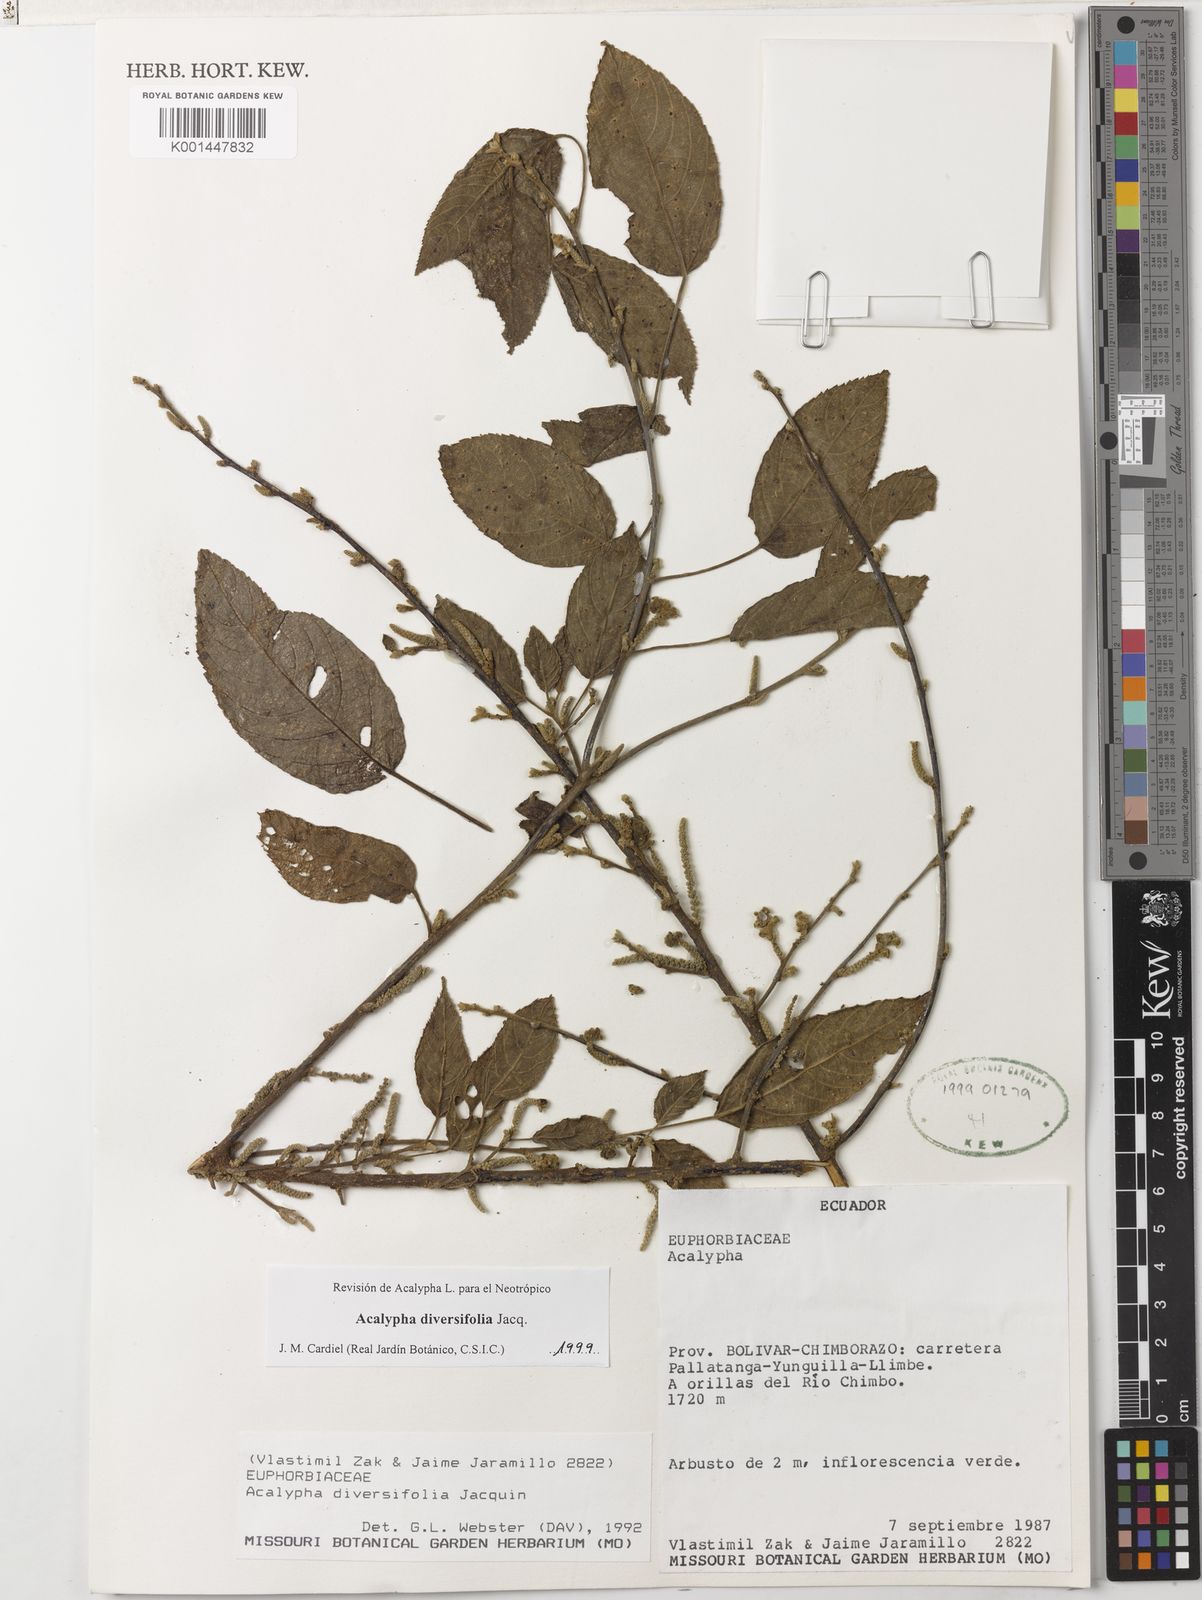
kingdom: Plantae
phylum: Tracheophyta
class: Magnoliopsida
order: Malpighiales
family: Euphorbiaceae
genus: Acalypha
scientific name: Acalypha diversifolia
